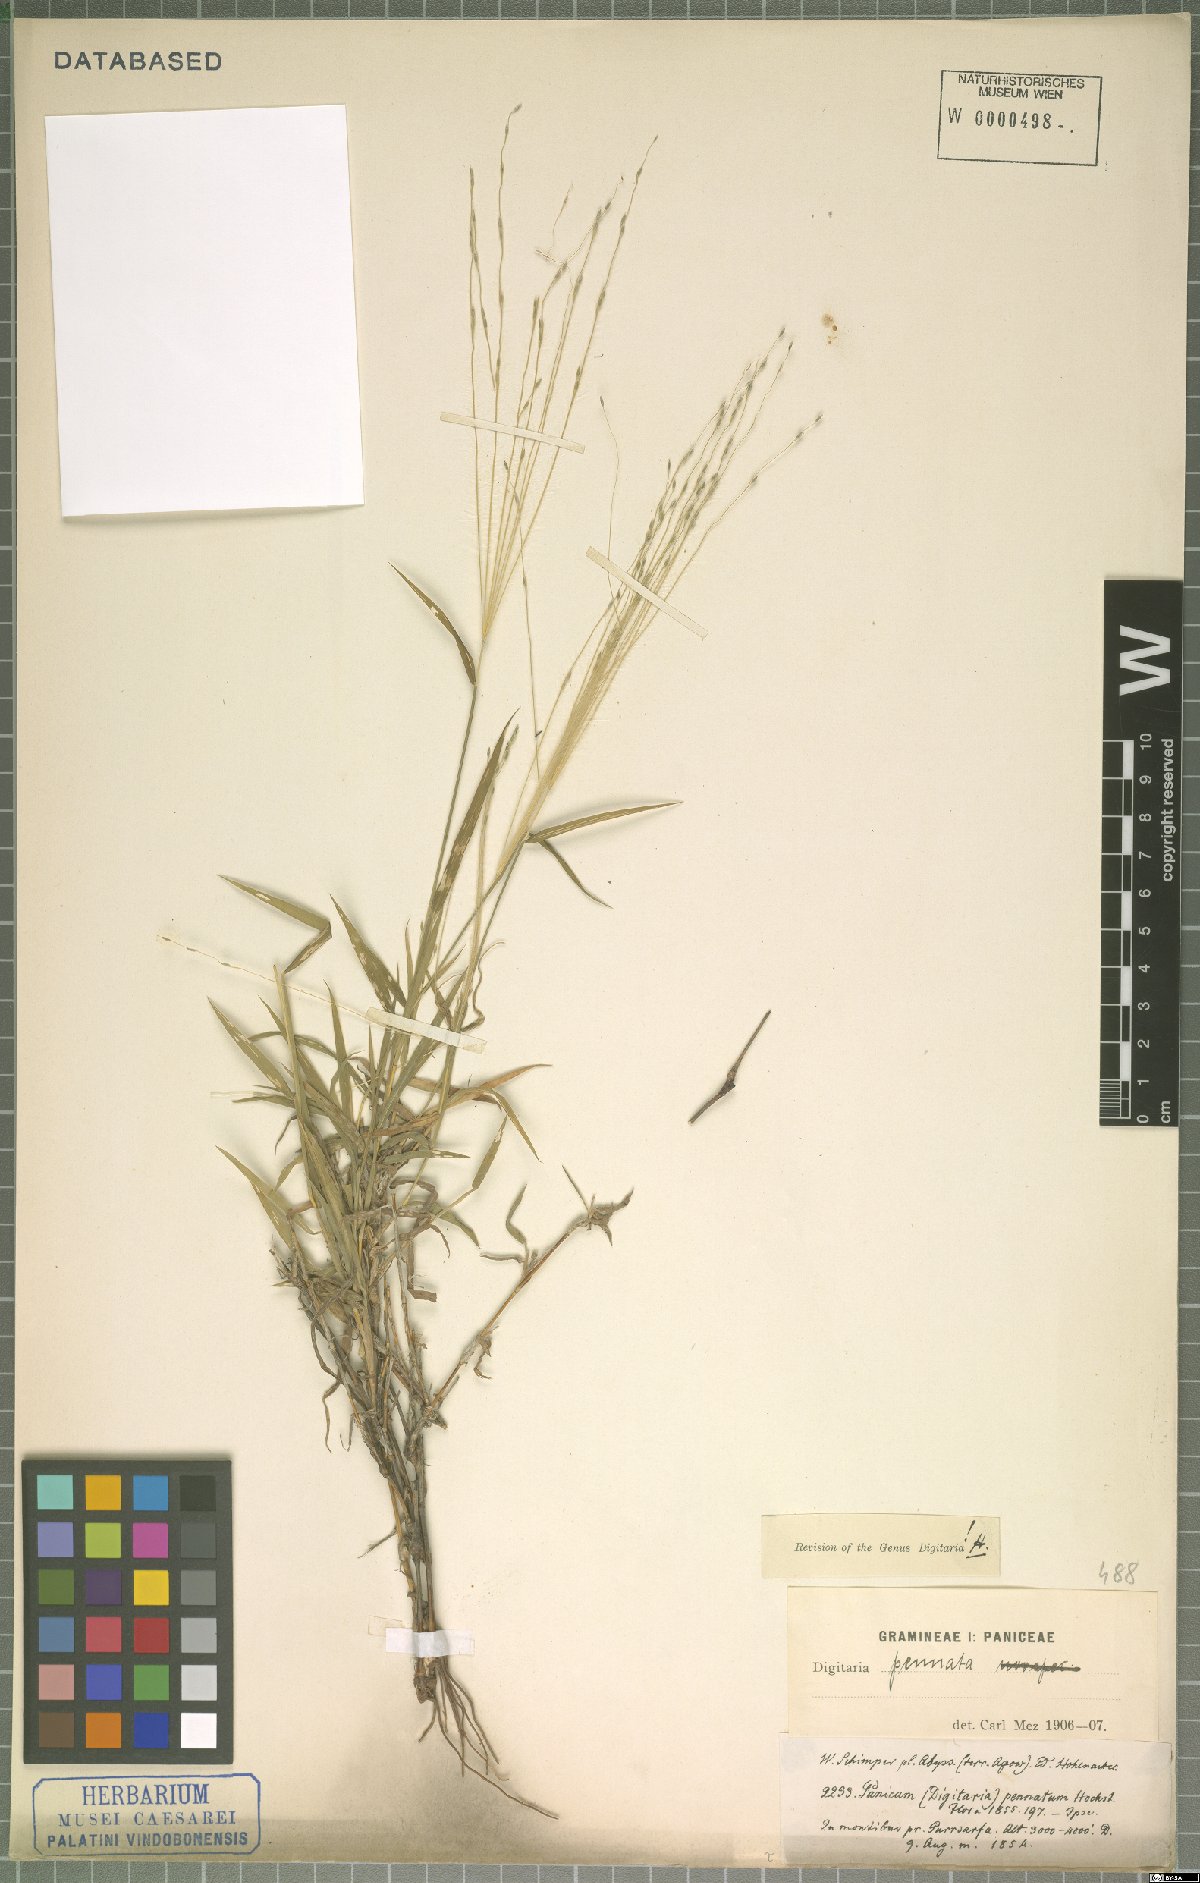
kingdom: Plantae
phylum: Tracheophyta
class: Liliopsida
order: Poales
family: Poaceae
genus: Digitaria
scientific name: Digitaria pennata
